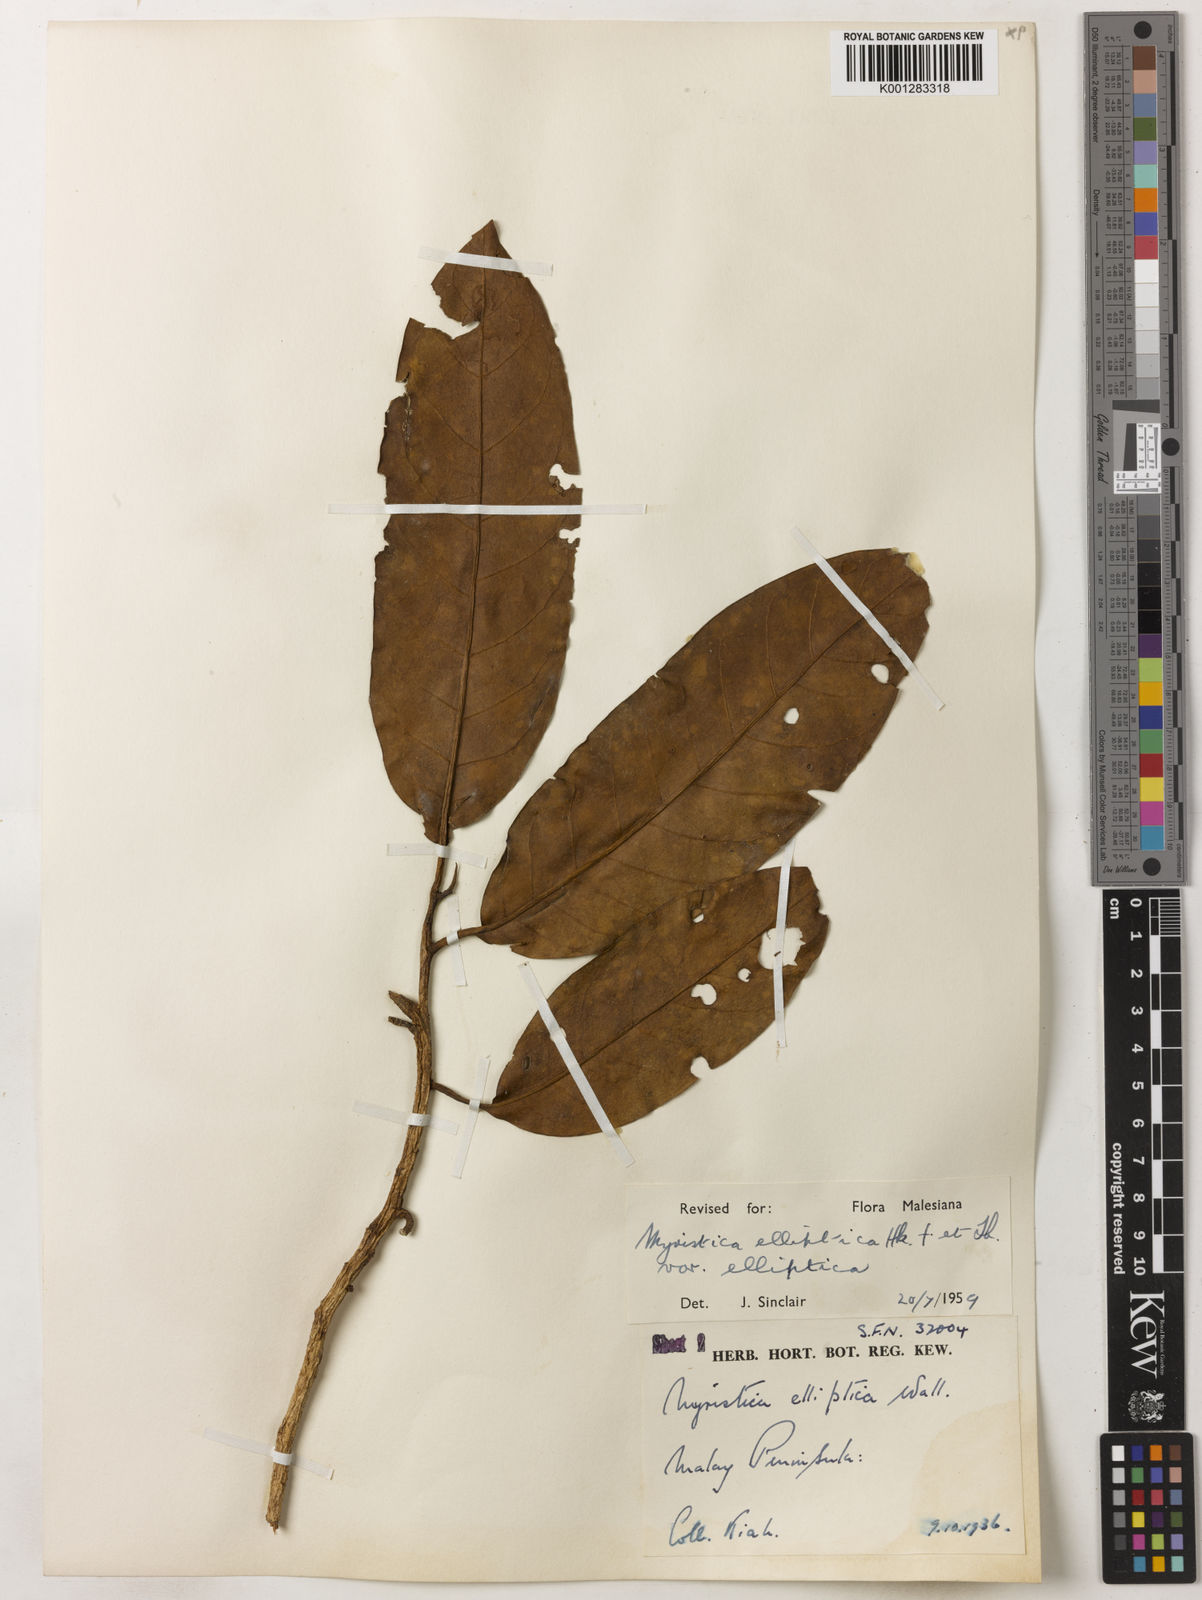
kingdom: Plantae
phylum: Tracheophyta
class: Magnoliopsida
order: Magnoliales
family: Myristicaceae
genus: Myristica
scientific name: Myristica elliptica
